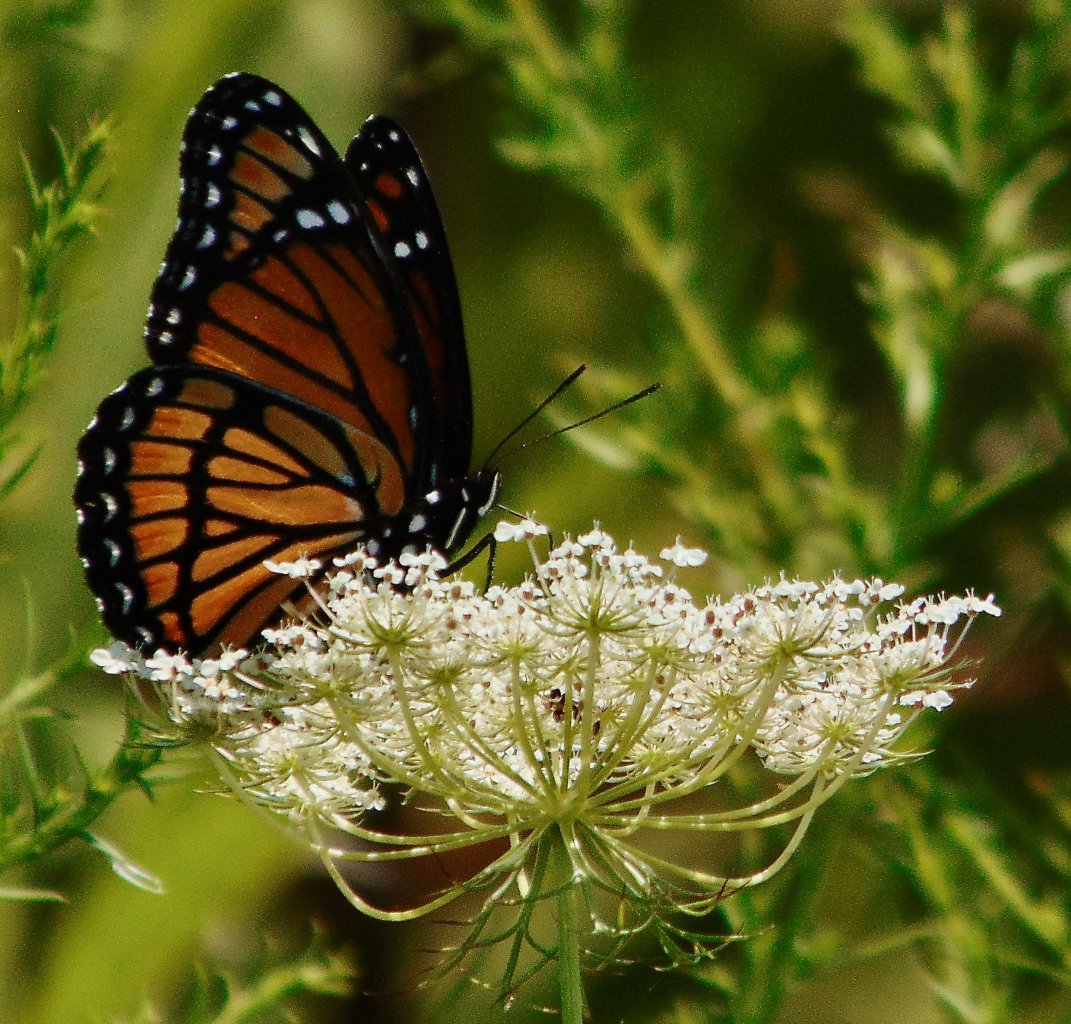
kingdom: Animalia
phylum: Arthropoda
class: Insecta
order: Lepidoptera
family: Nymphalidae
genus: Limenitis
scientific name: Limenitis archippus
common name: Viceroy
